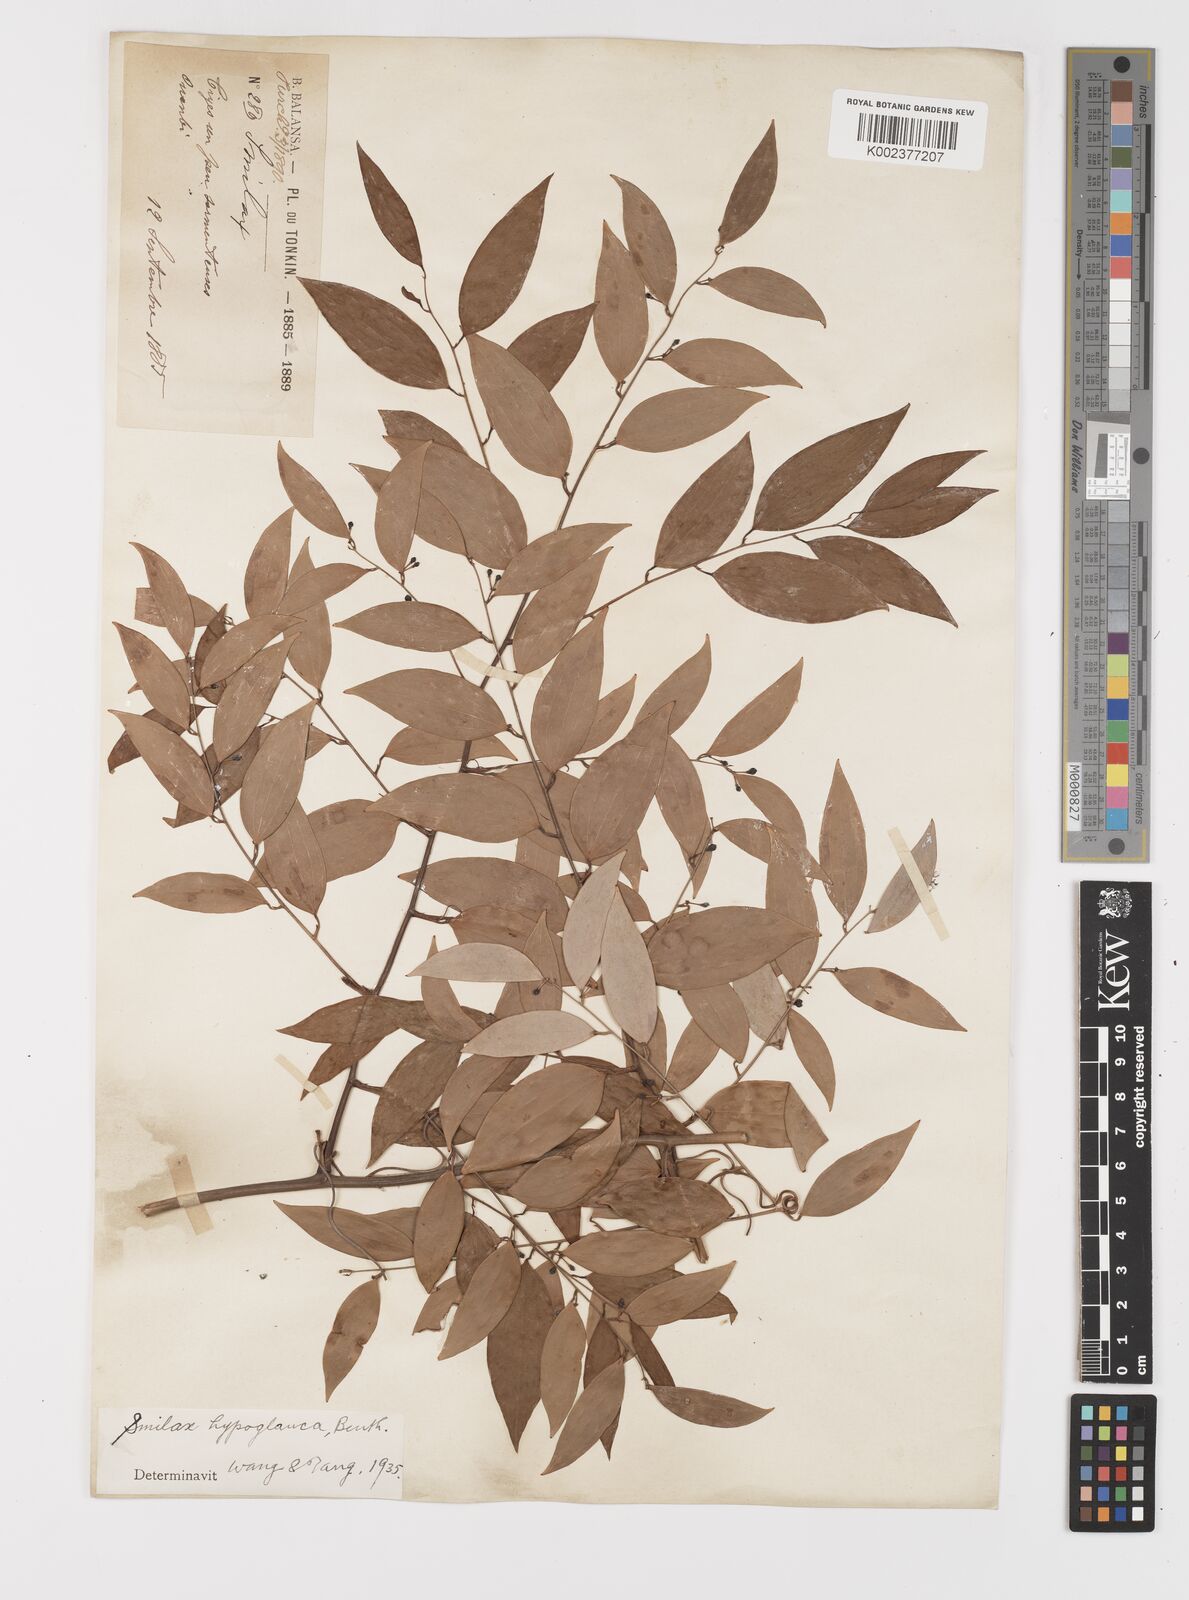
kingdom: Plantae
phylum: Tracheophyta
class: Liliopsida
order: Liliales
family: Smilacaceae
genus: Smilax
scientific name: Smilax hypoglauca
